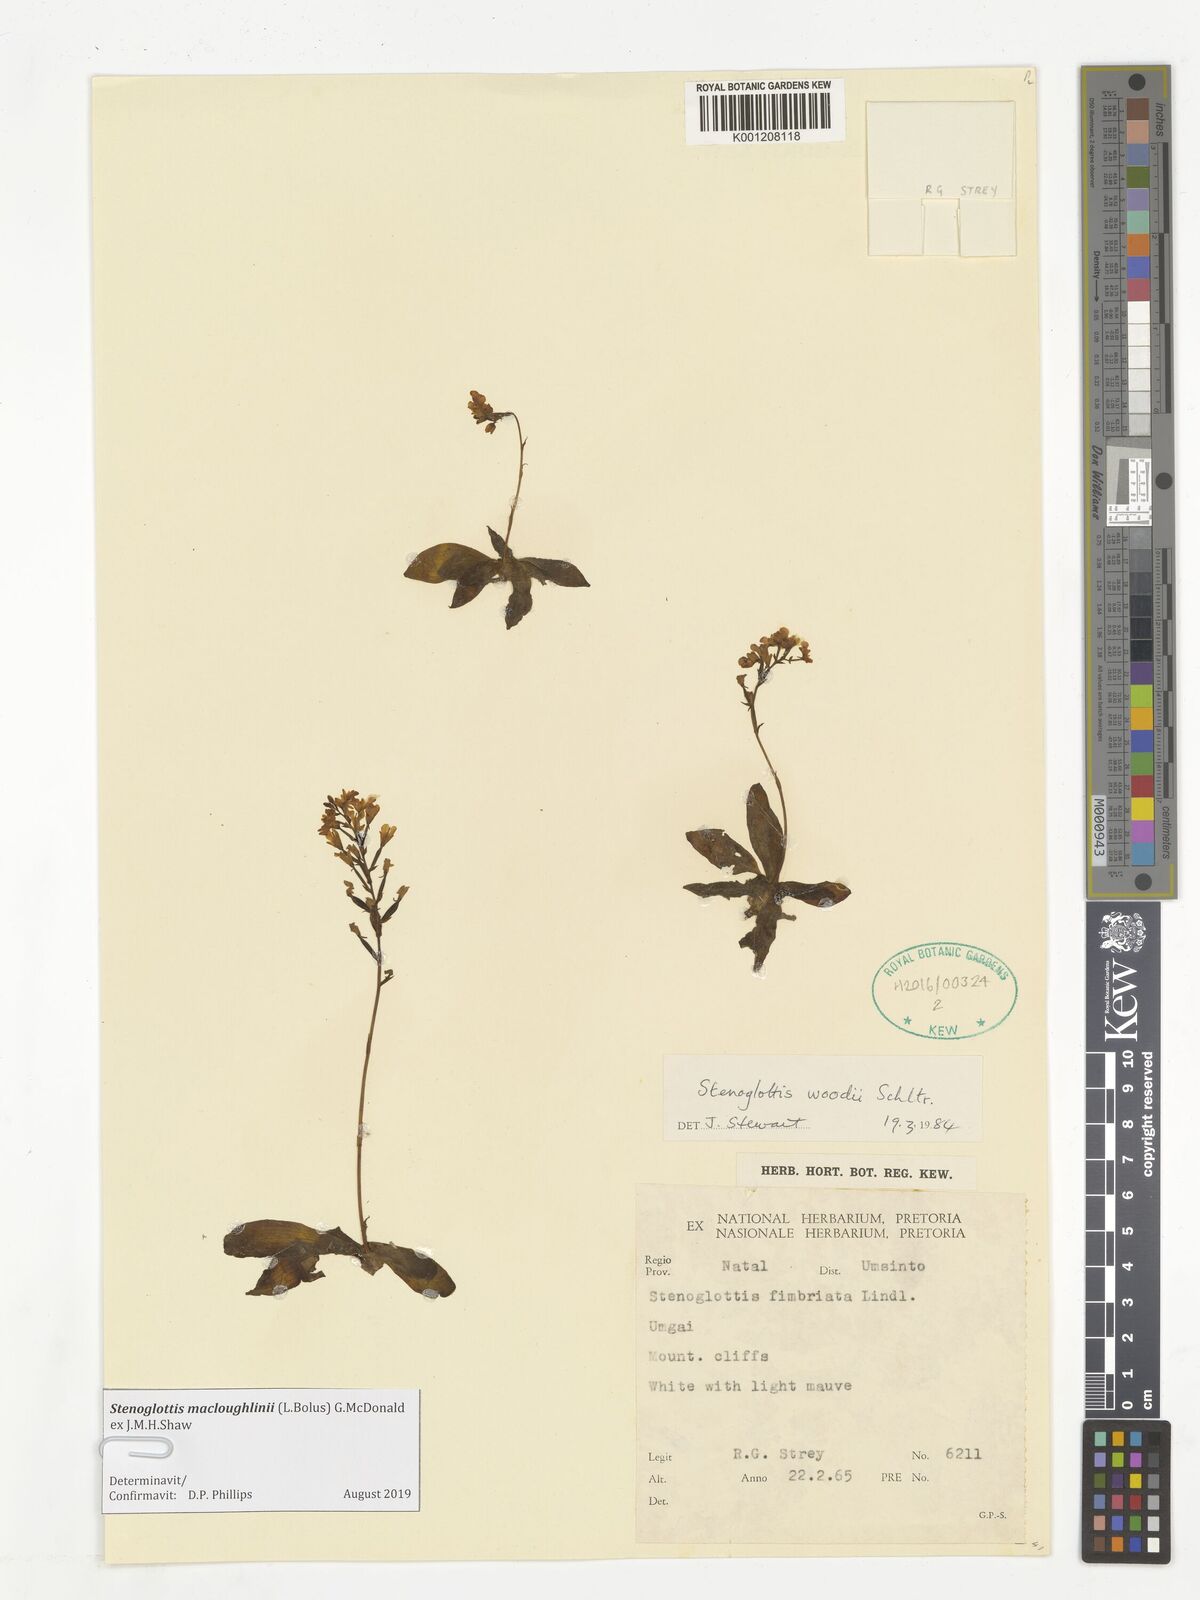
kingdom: Plantae
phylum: Tracheophyta
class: Liliopsida
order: Asparagales
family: Orchidaceae
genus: Stenoglottis
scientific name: Stenoglottis macloughlinii
